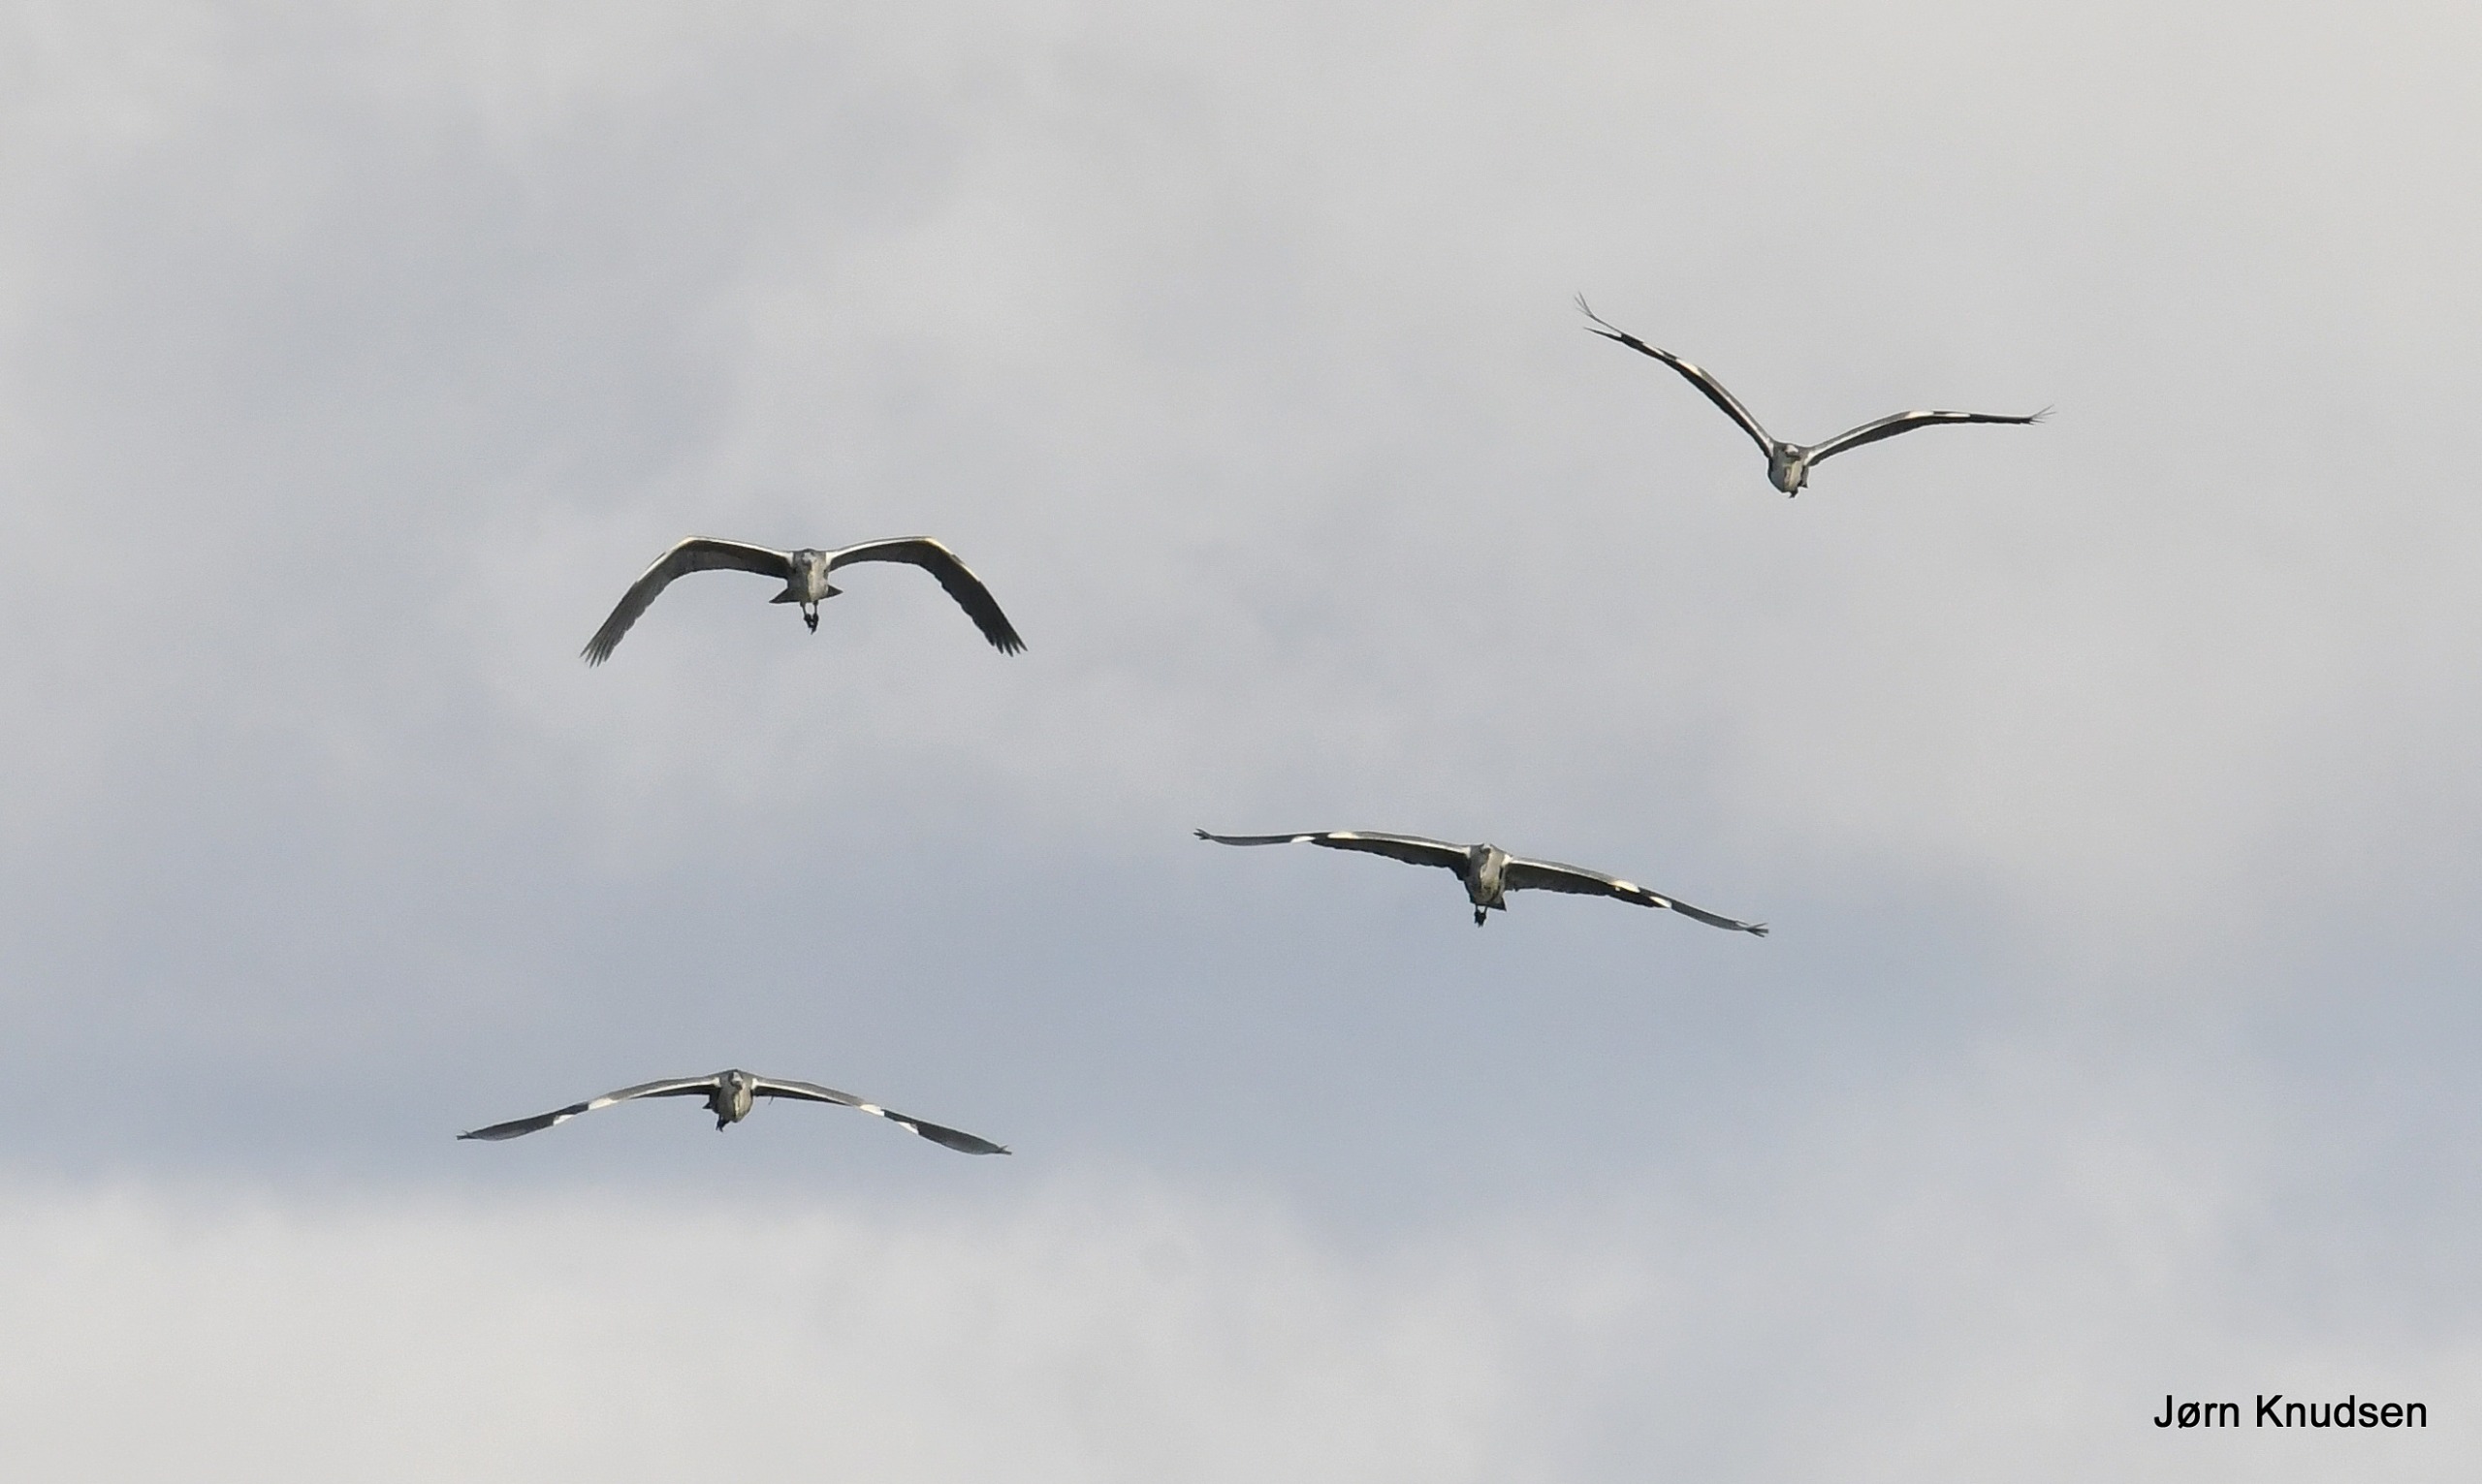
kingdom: Animalia
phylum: Chordata
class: Aves
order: Pelecaniformes
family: Ardeidae
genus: Ardea
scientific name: Ardea cinerea
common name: Fiskehejre
